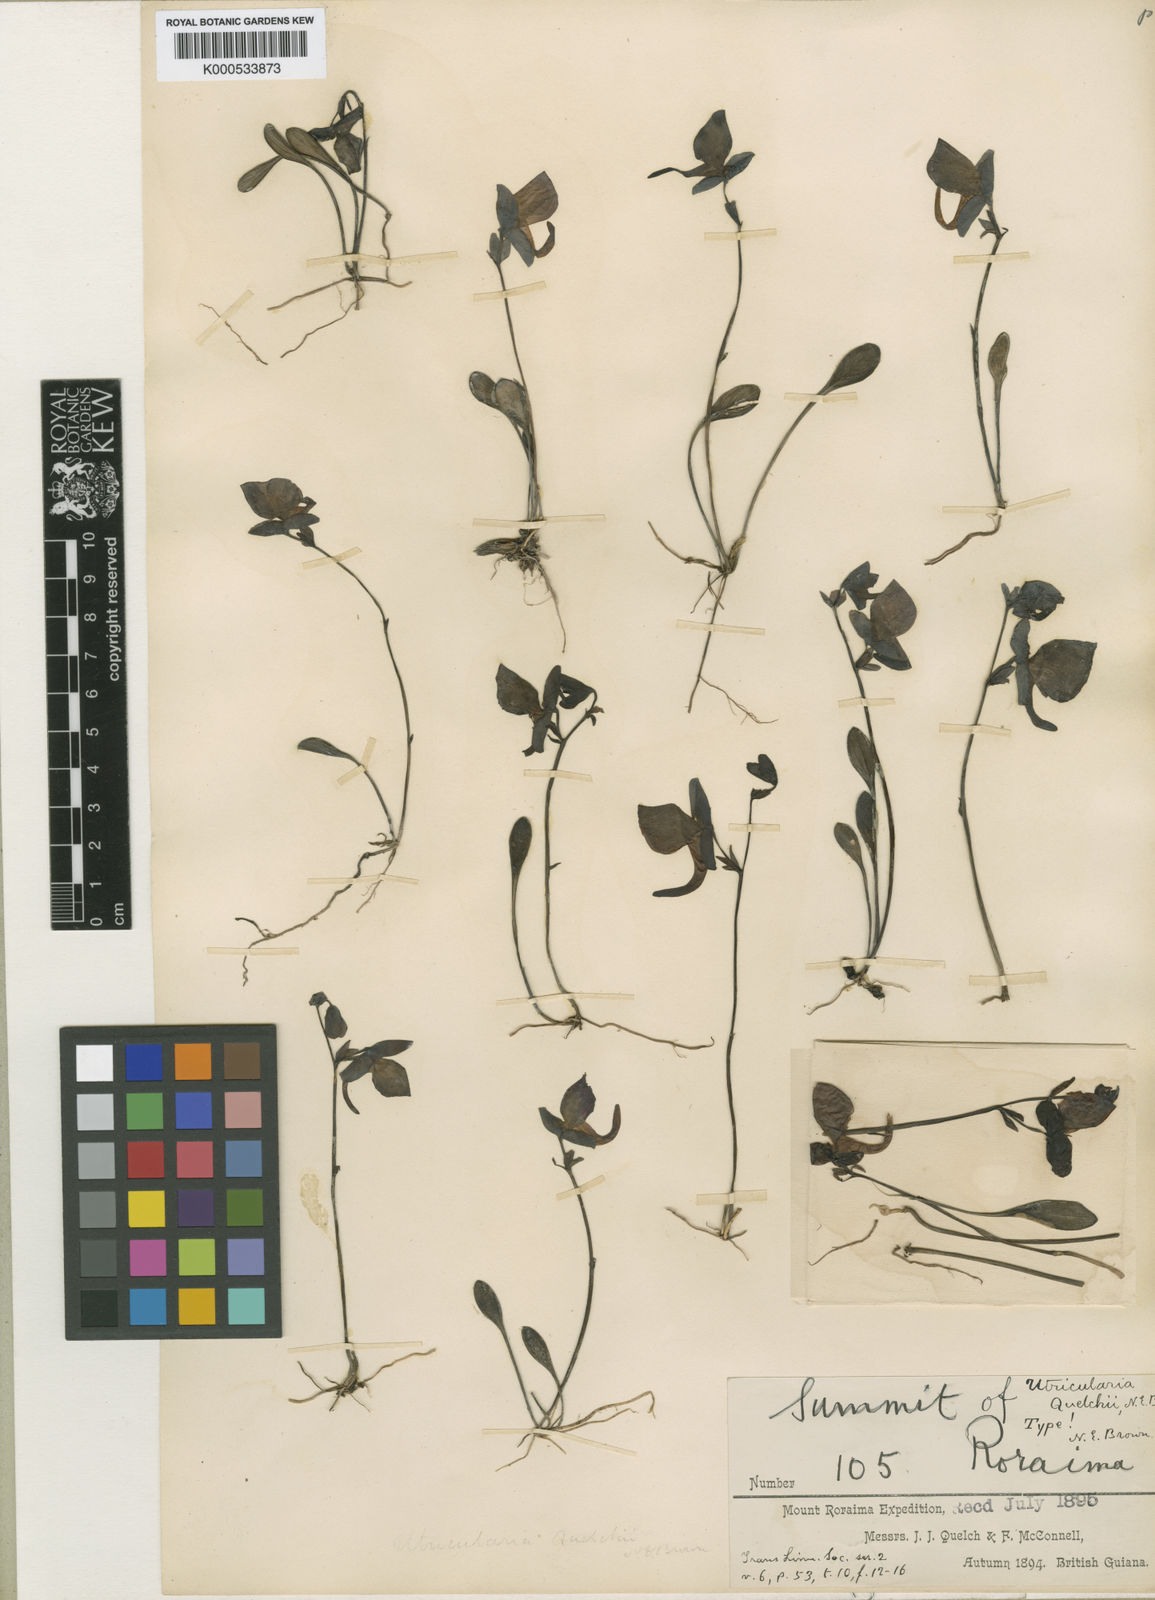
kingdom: Plantae
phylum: Tracheophyta
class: Magnoliopsida
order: Lamiales
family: Lentibulariaceae
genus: Utricularia
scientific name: Utricularia quelchii
